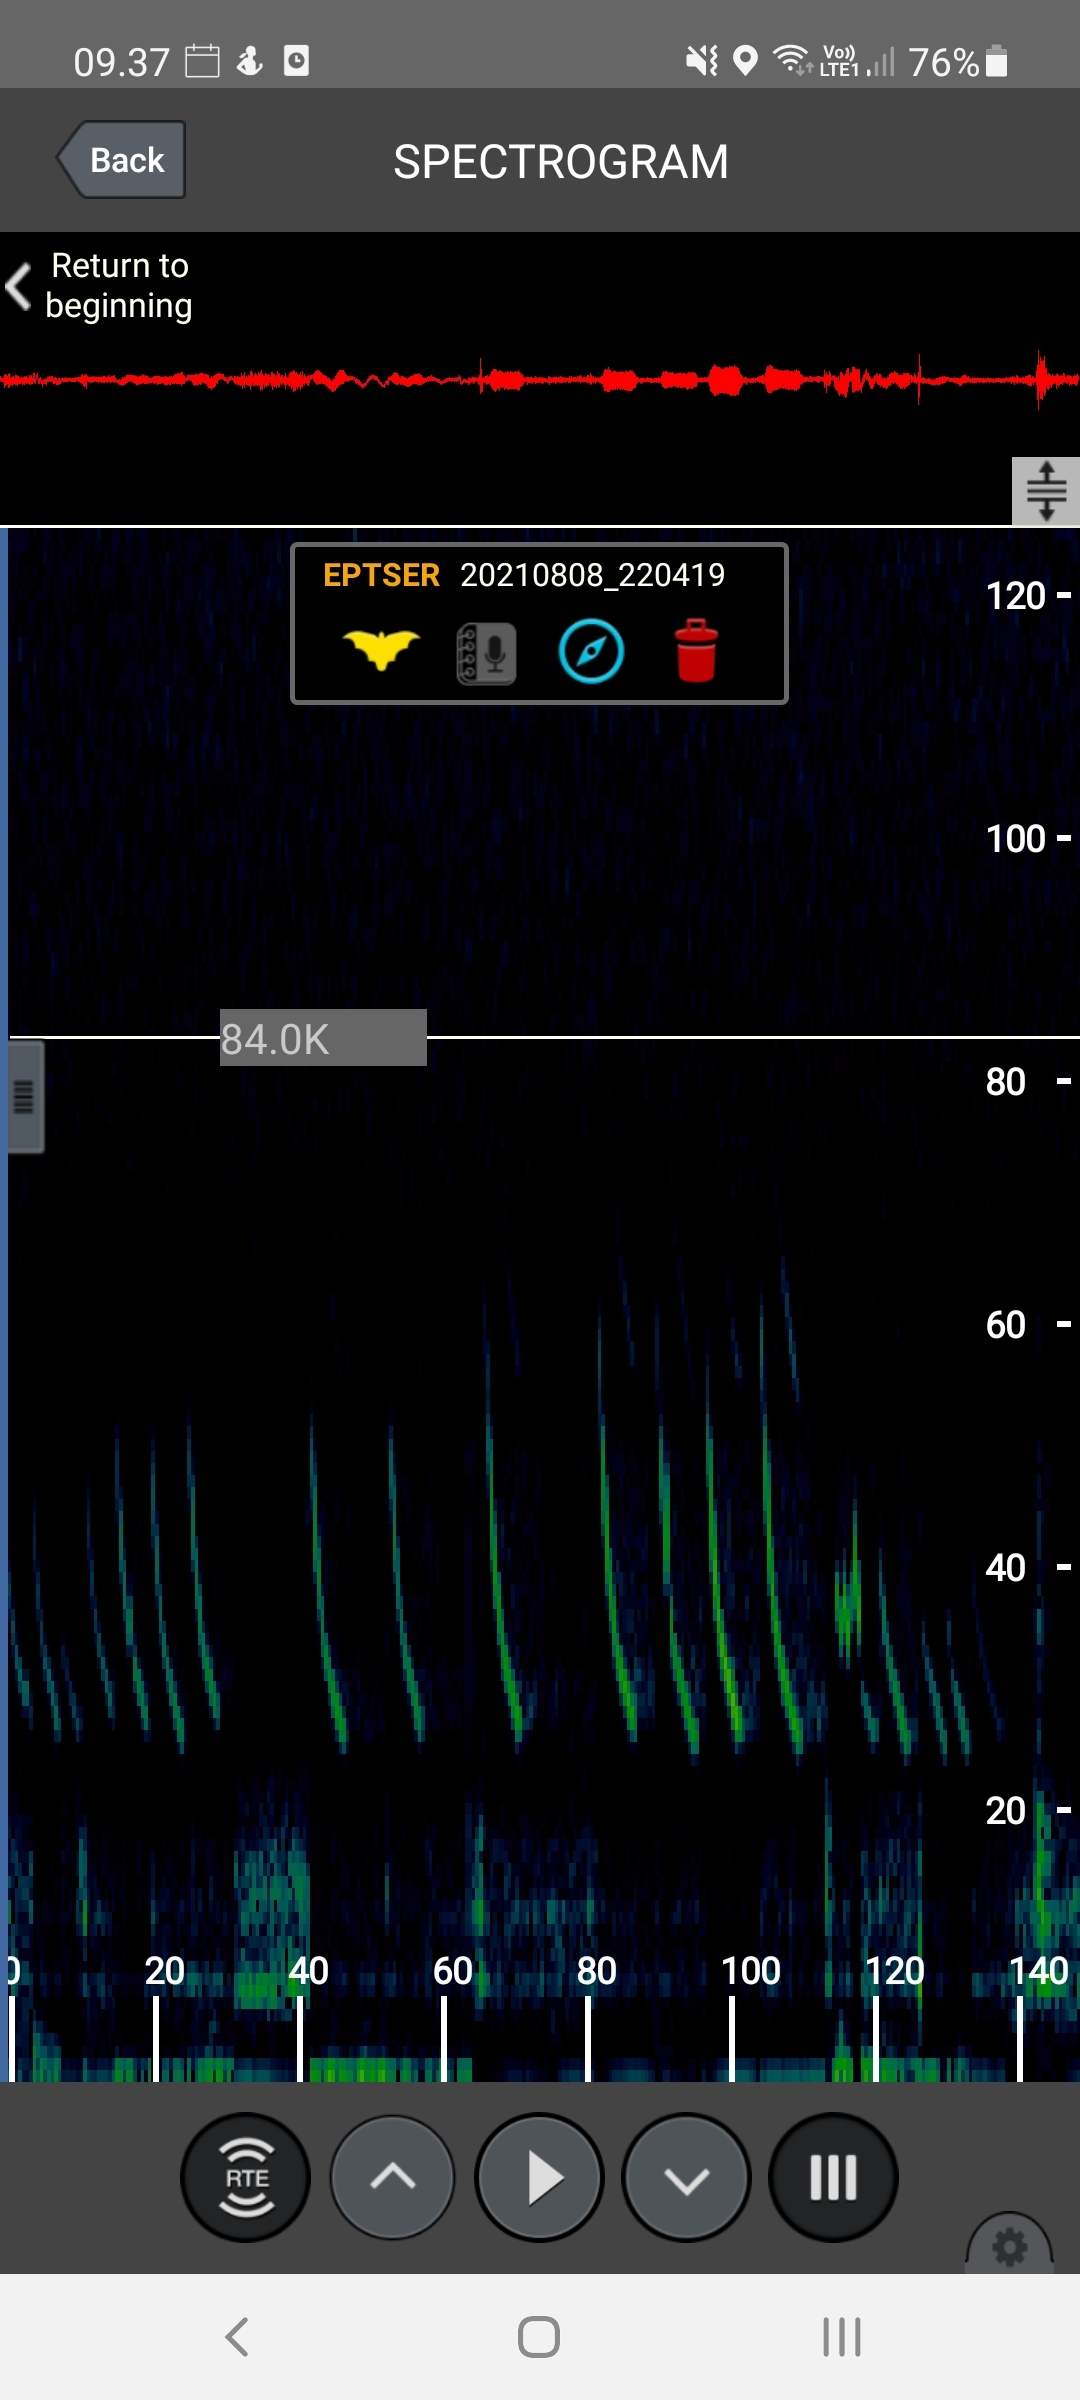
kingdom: Animalia
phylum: Chordata
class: Mammalia
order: Chiroptera
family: Vespertilionidae
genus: Eptesicus
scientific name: Eptesicus serotinus
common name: Sydflagermus
